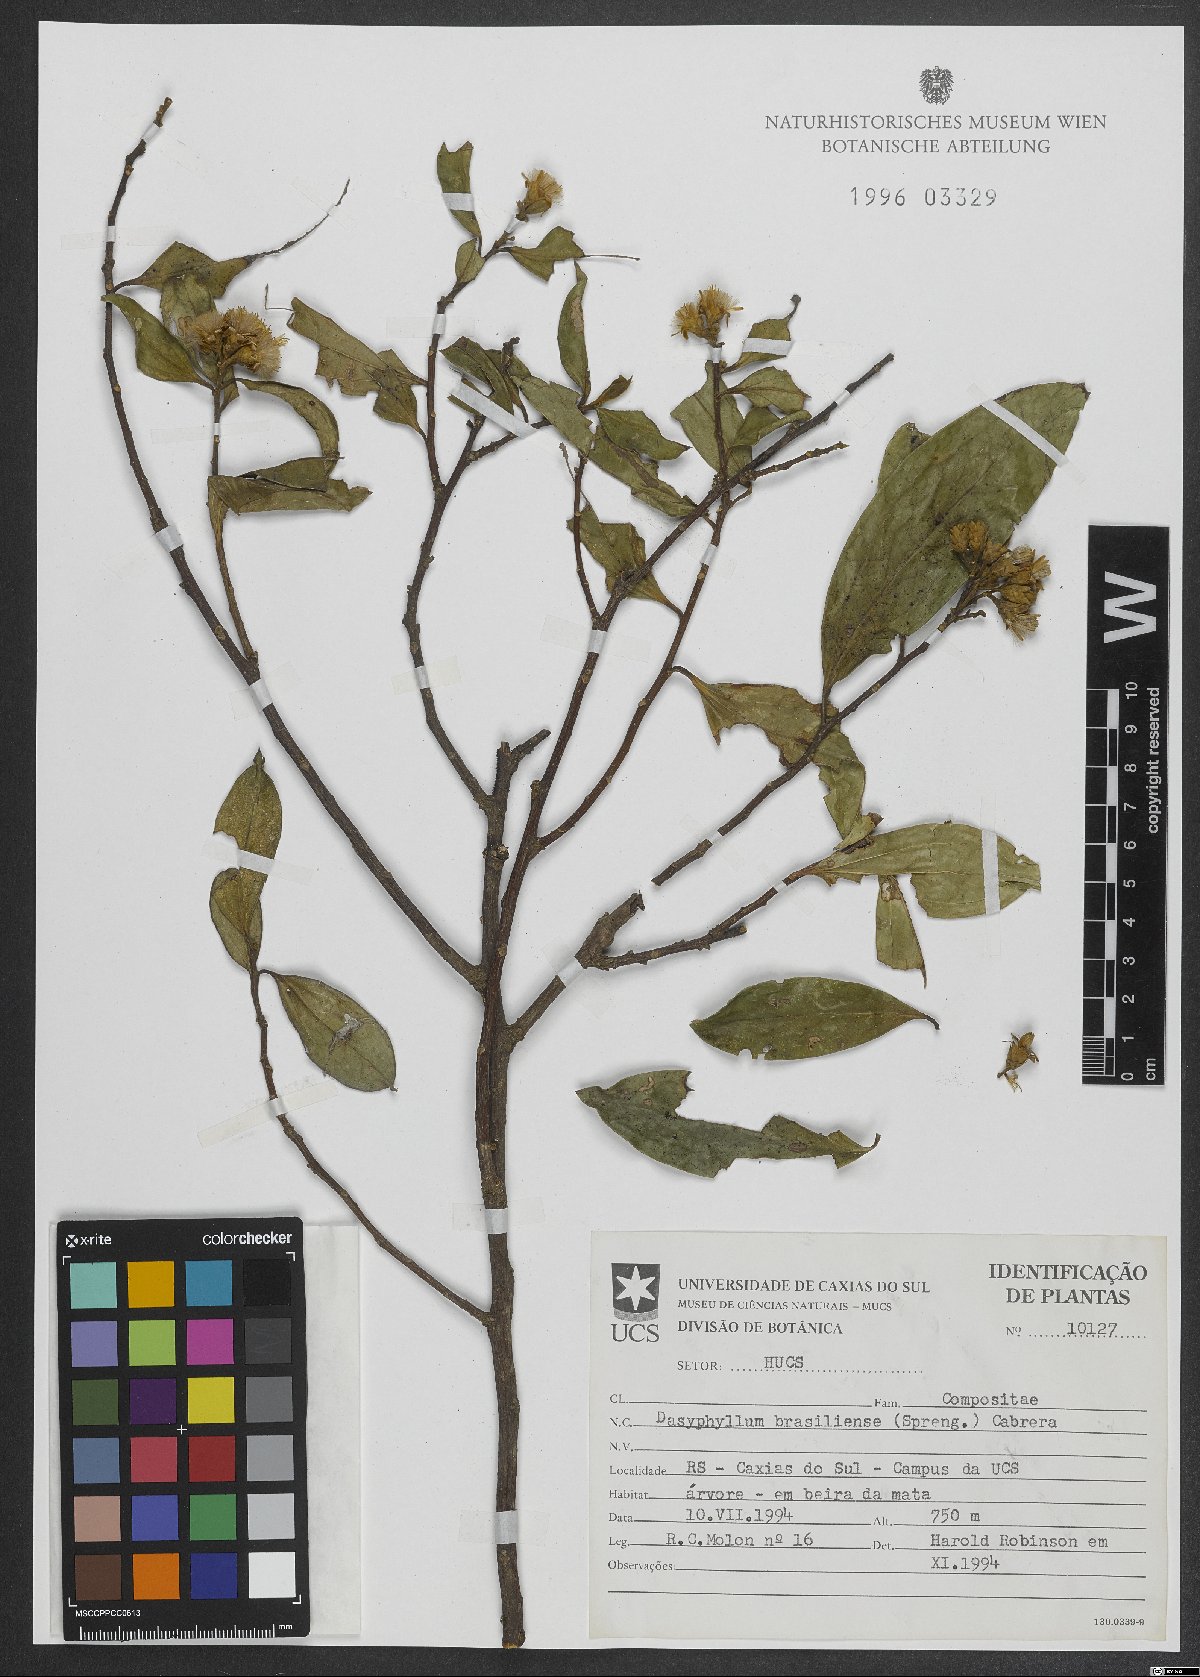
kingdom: Plantae
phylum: Tracheophyta
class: Magnoliopsida
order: Asterales
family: Asteraceae
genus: Dasyphyllum
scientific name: Dasyphyllum brasiliense
